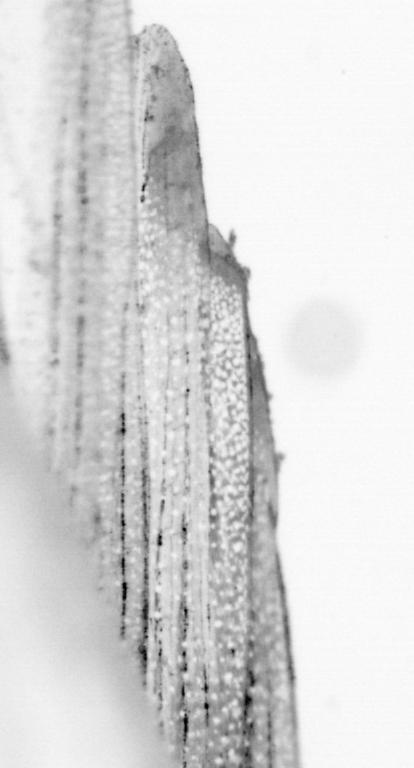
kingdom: Animalia
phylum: Chordata
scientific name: Chordata
